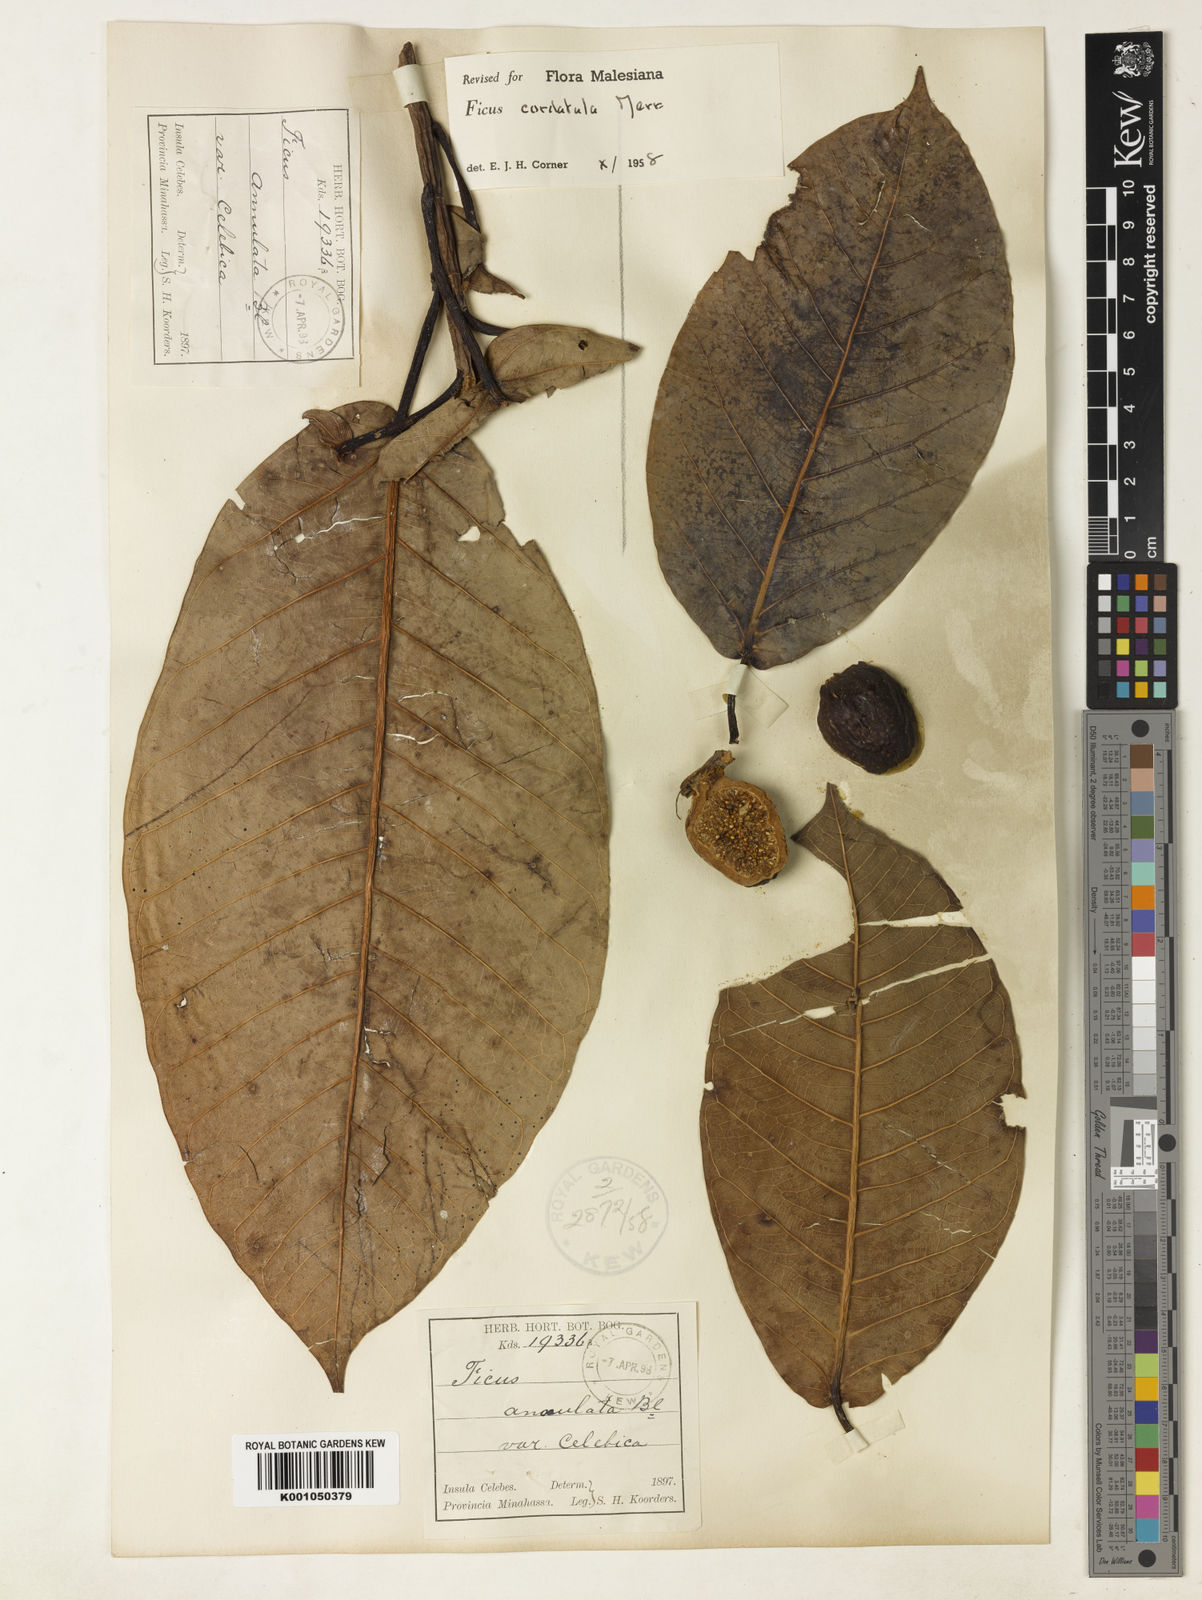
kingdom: Plantae
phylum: Tracheophyta
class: Magnoliopsida
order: Rosales
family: Moraceae
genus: Ficus
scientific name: Ficus cordatula
